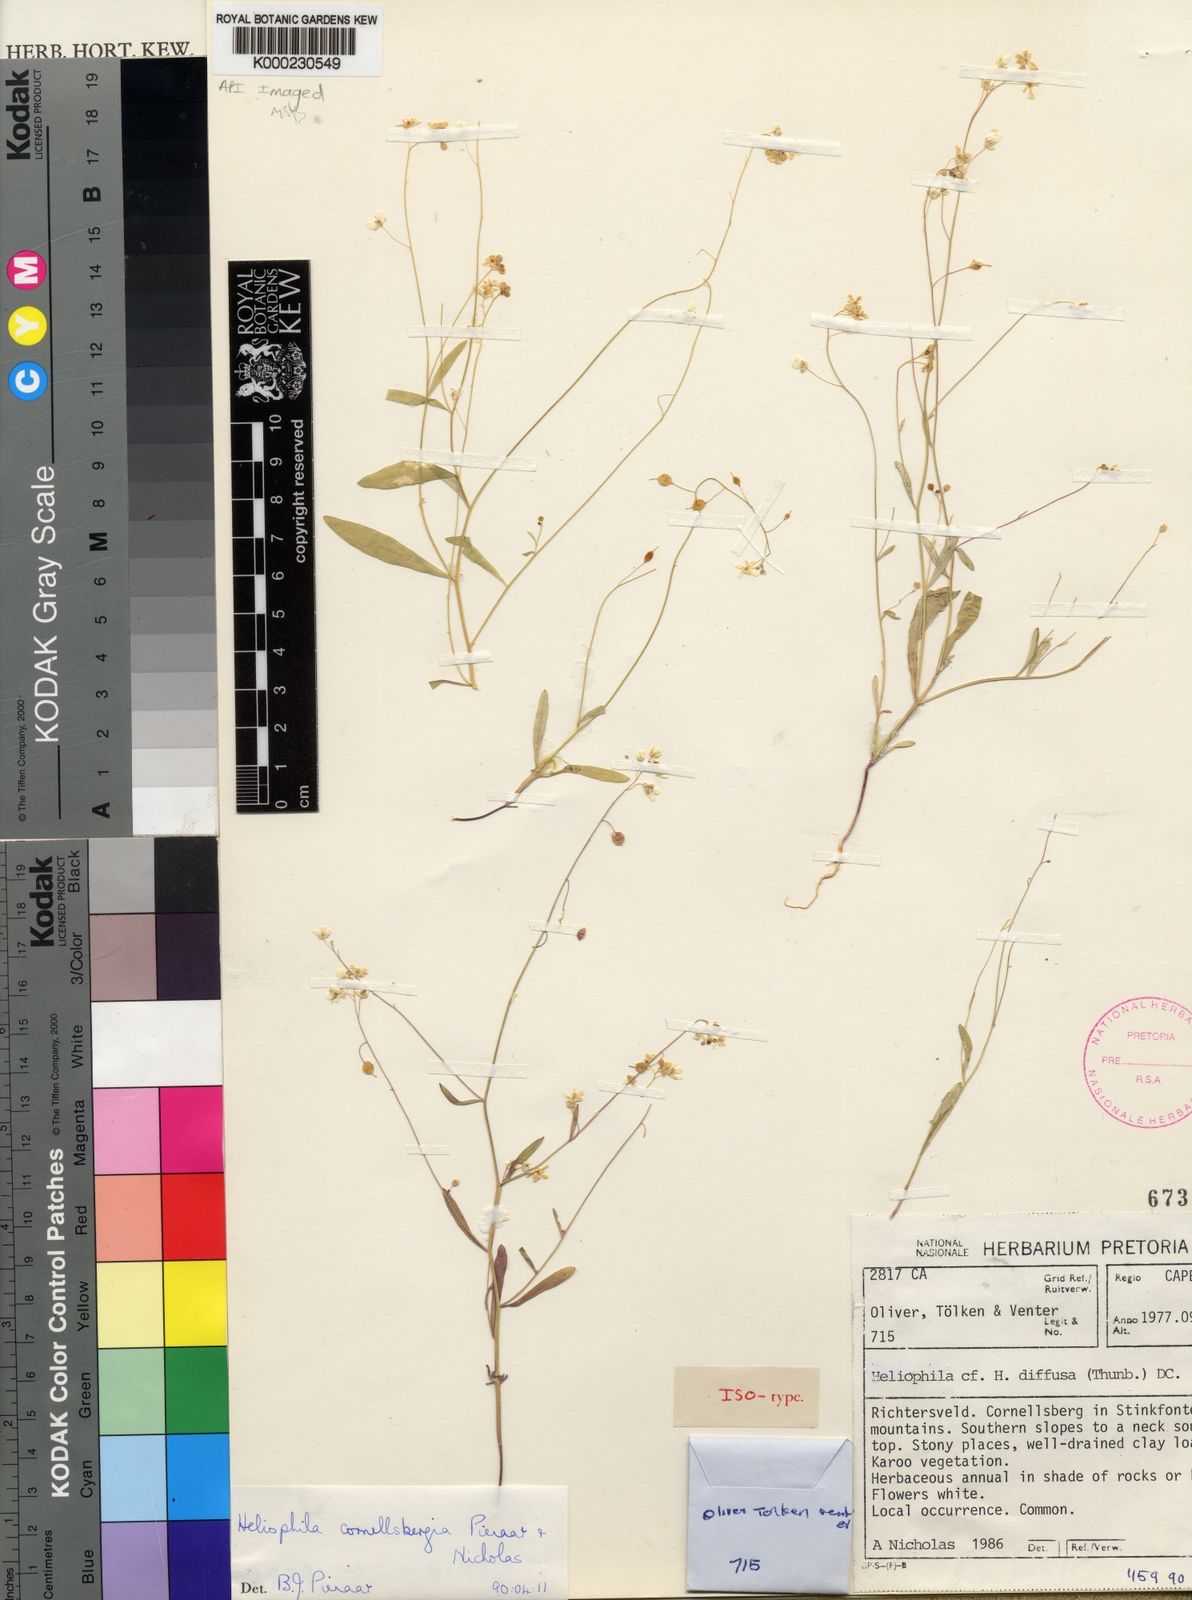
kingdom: Plantae
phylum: Tracheophyta
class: Magnoliopsida
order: Brassicales
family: Brassicaceae
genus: Heliophila
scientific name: Heliophila cornellsbergia
